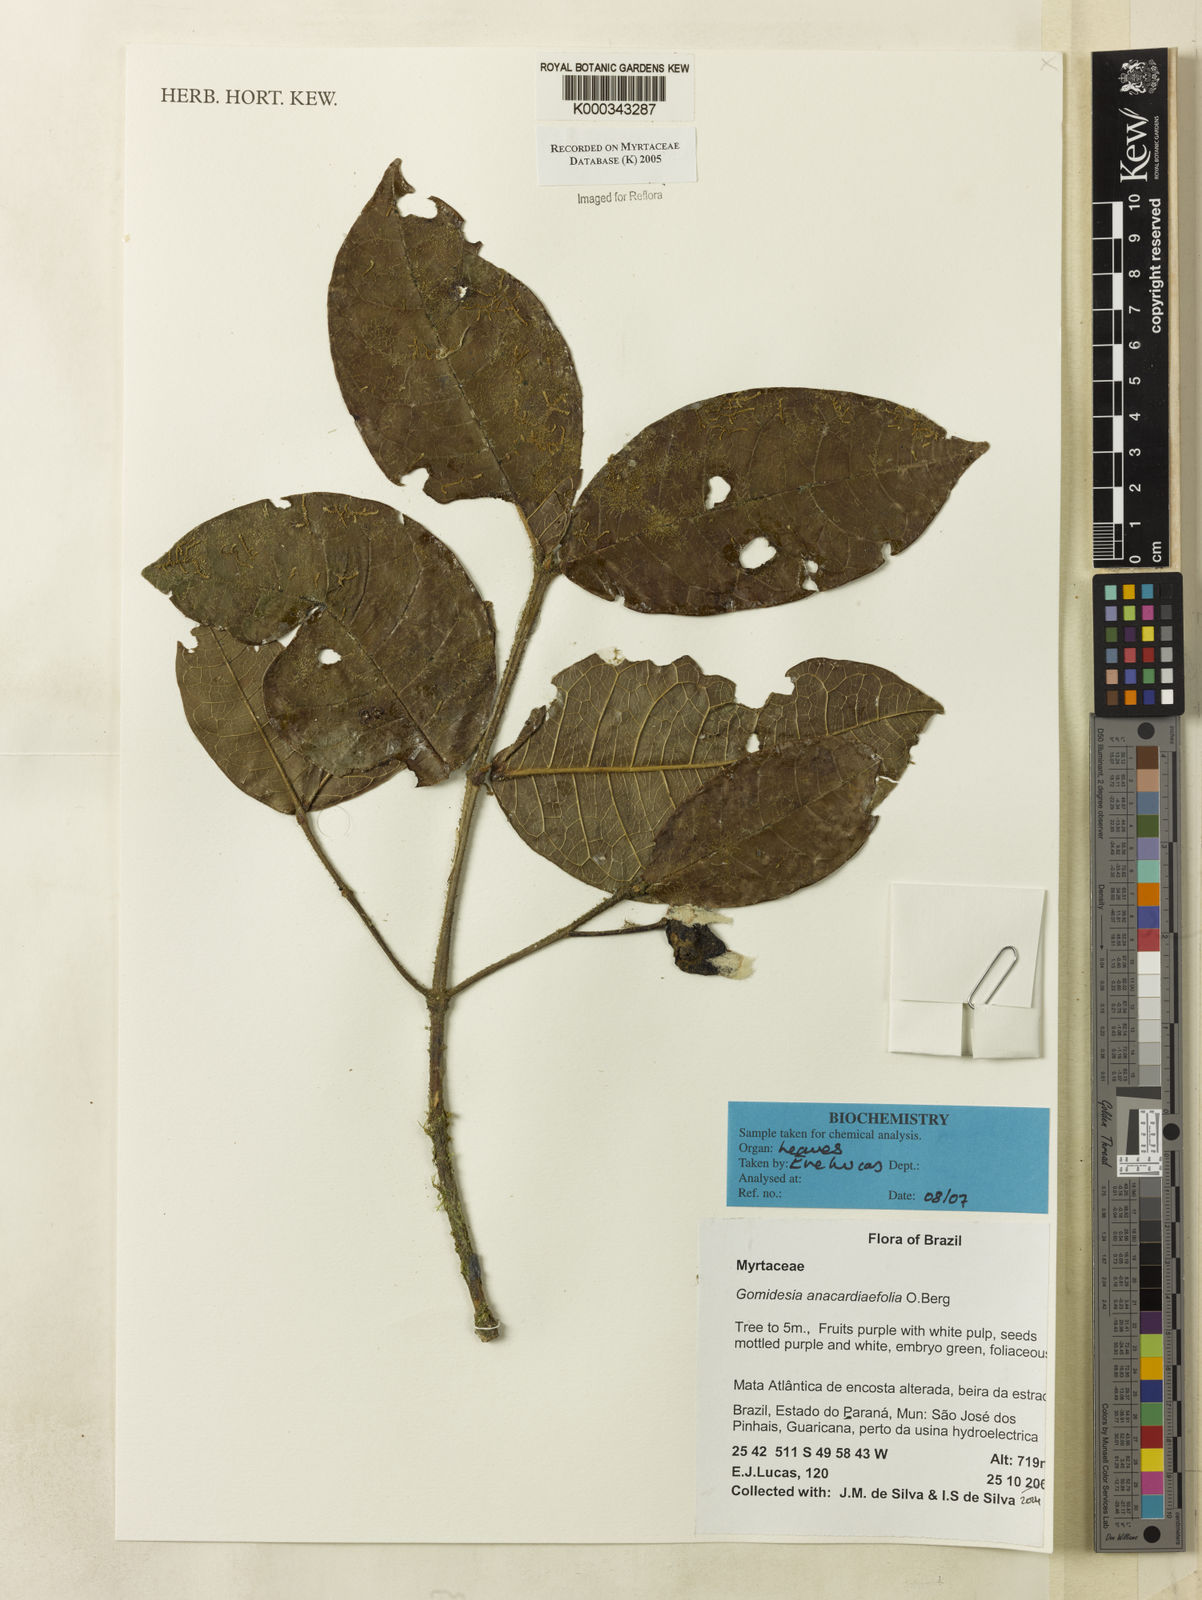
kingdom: Plantae
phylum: Tracheophyta
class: Magnoliopsida
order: Myrtales
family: Myrtaceae
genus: Myrcia
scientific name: Myrcia anacardiifolia
